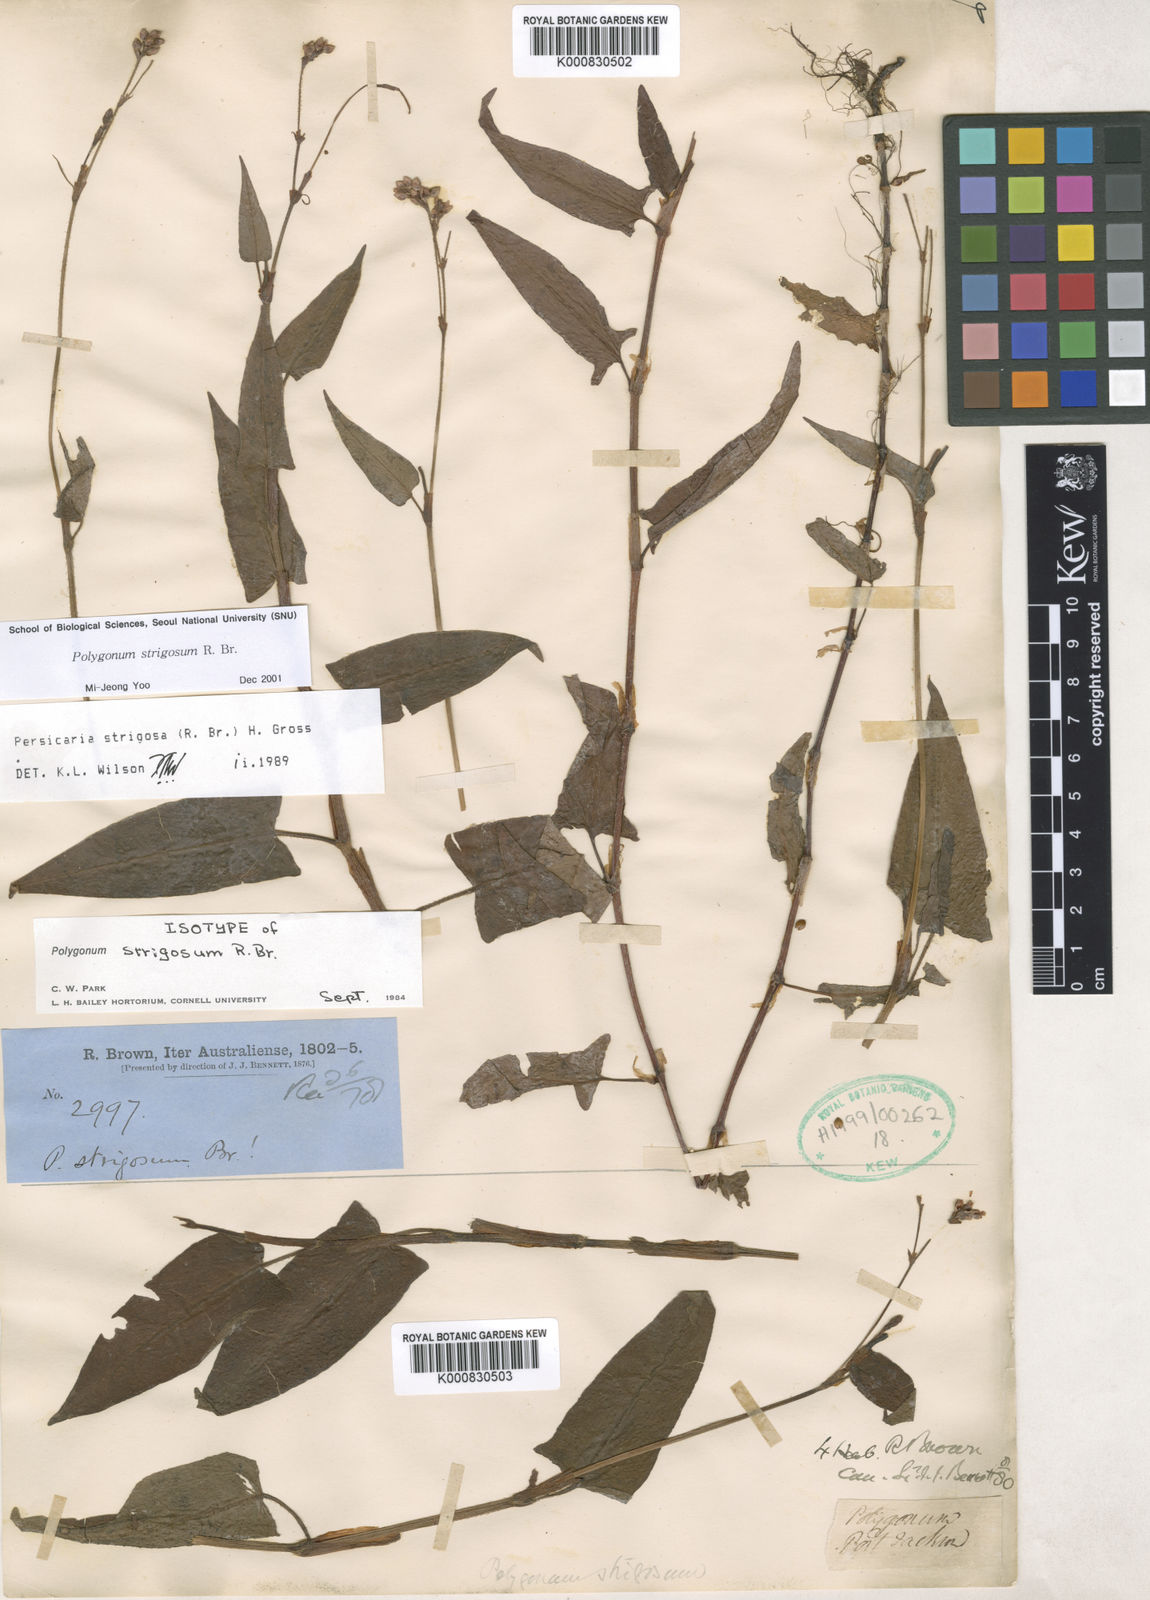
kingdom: Plantae
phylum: Tracheophyta
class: Magnoliopsida
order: Caryophyllales
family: Polygonaceae
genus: Persicaria
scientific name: Persicaria strigosa
